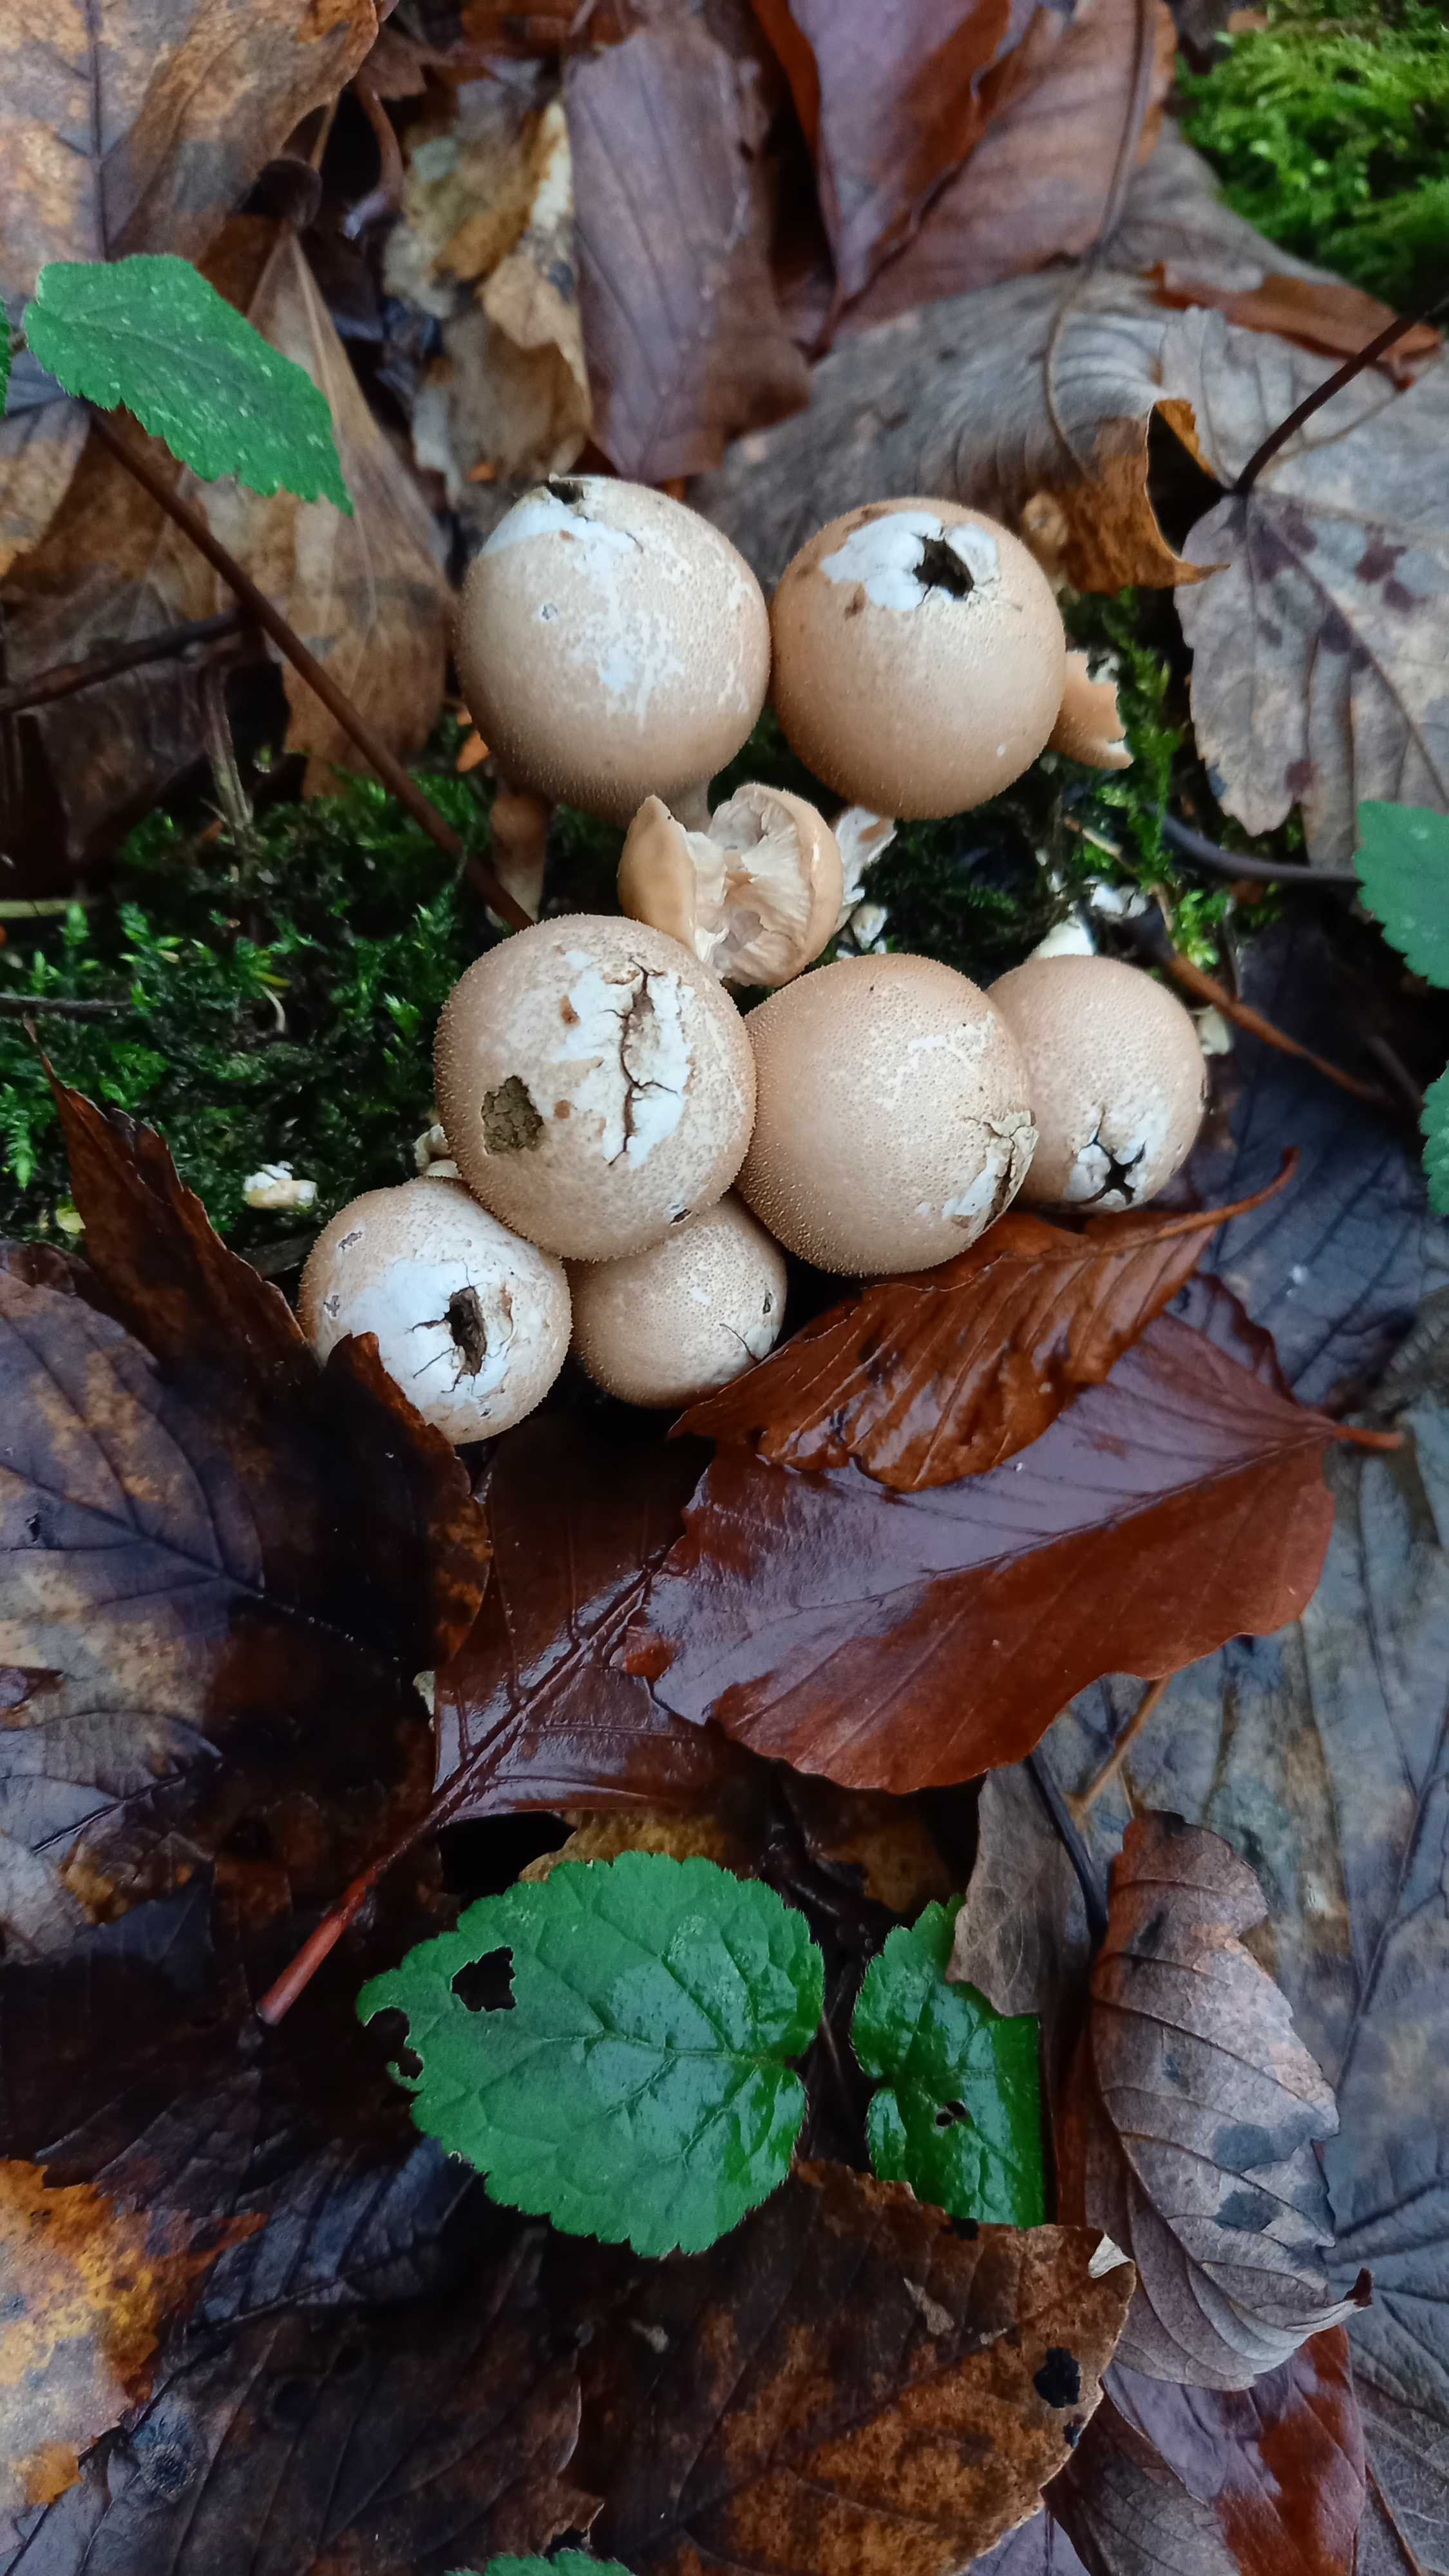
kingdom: Fungi
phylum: Basidiomycota
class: Agaricomycetes
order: Agaricales
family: Lycoperdaceae
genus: Apioperdon
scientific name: Apioperdon pyriforme
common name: pære-støvbold
